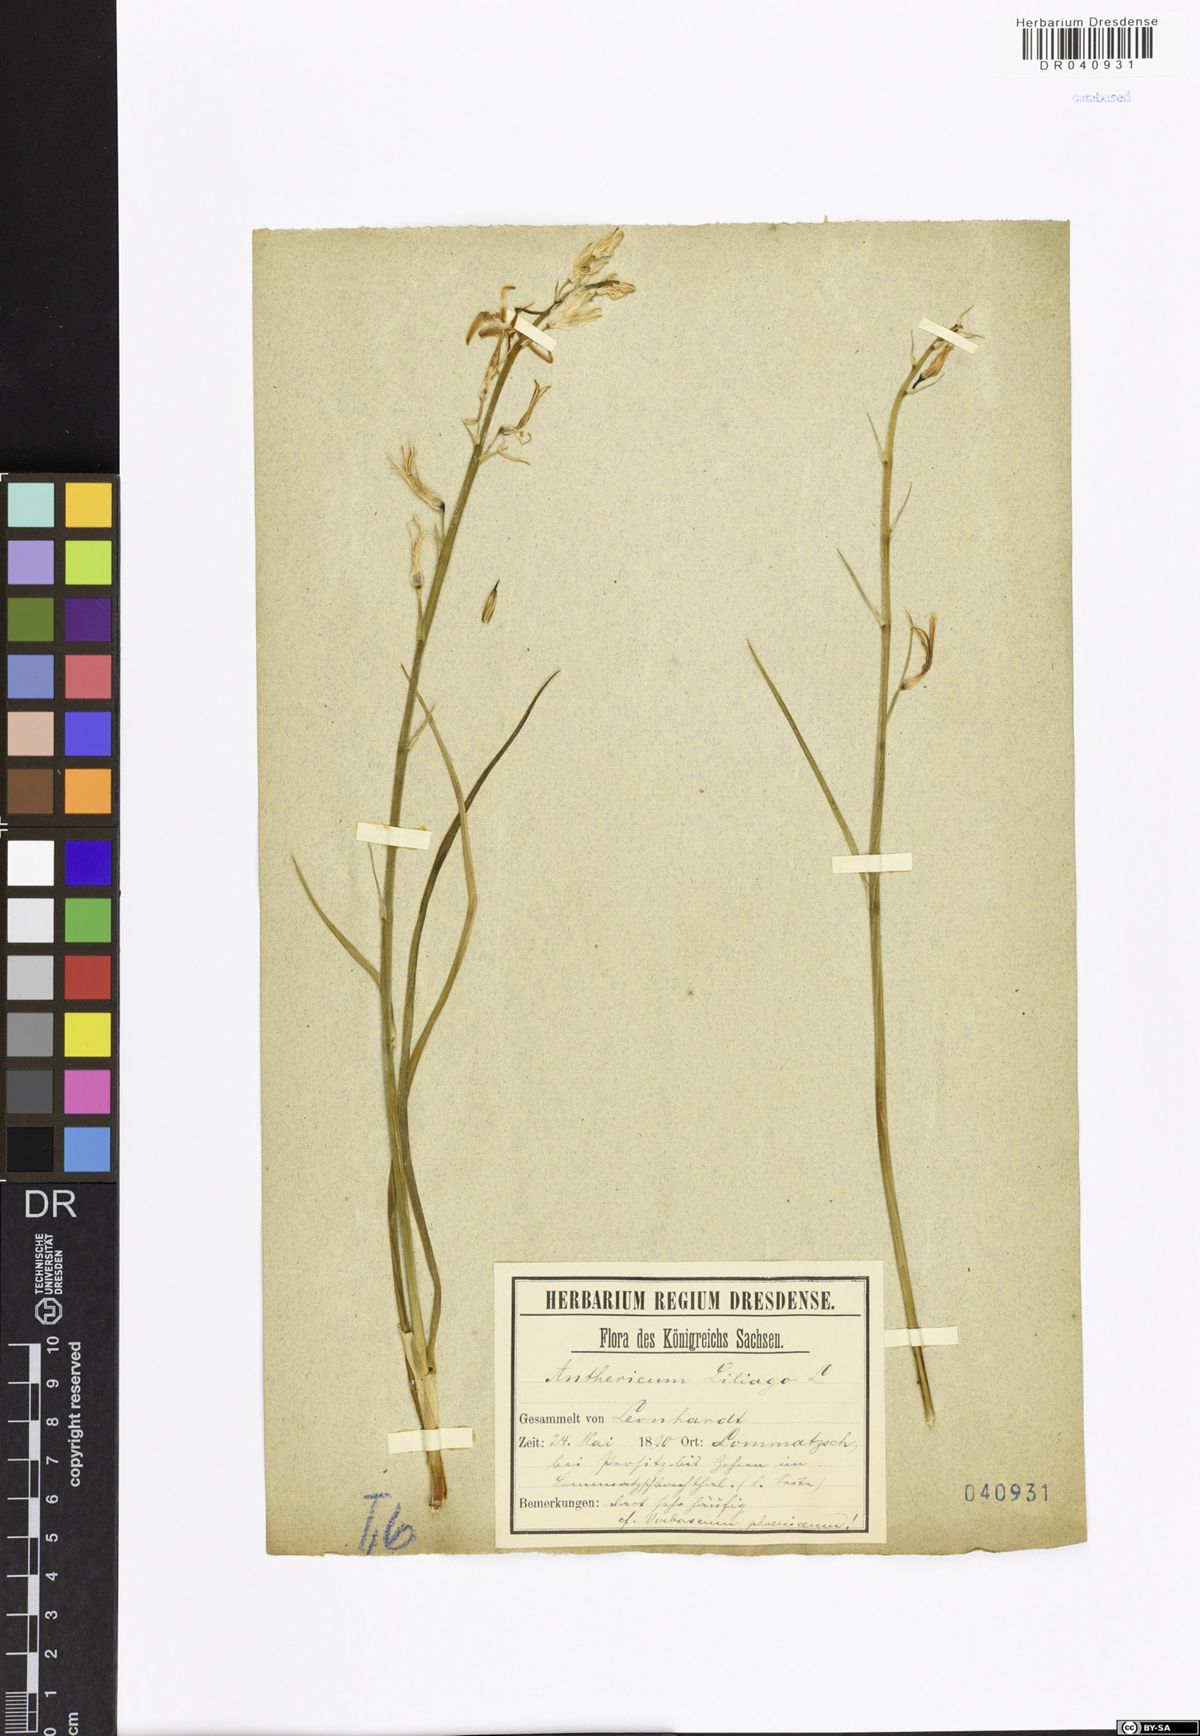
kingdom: Plantae
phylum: Tracheophyta
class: Liliopsida
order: Asparagales
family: Asparagaceae
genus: Anthericum
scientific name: Anthericum liliago
